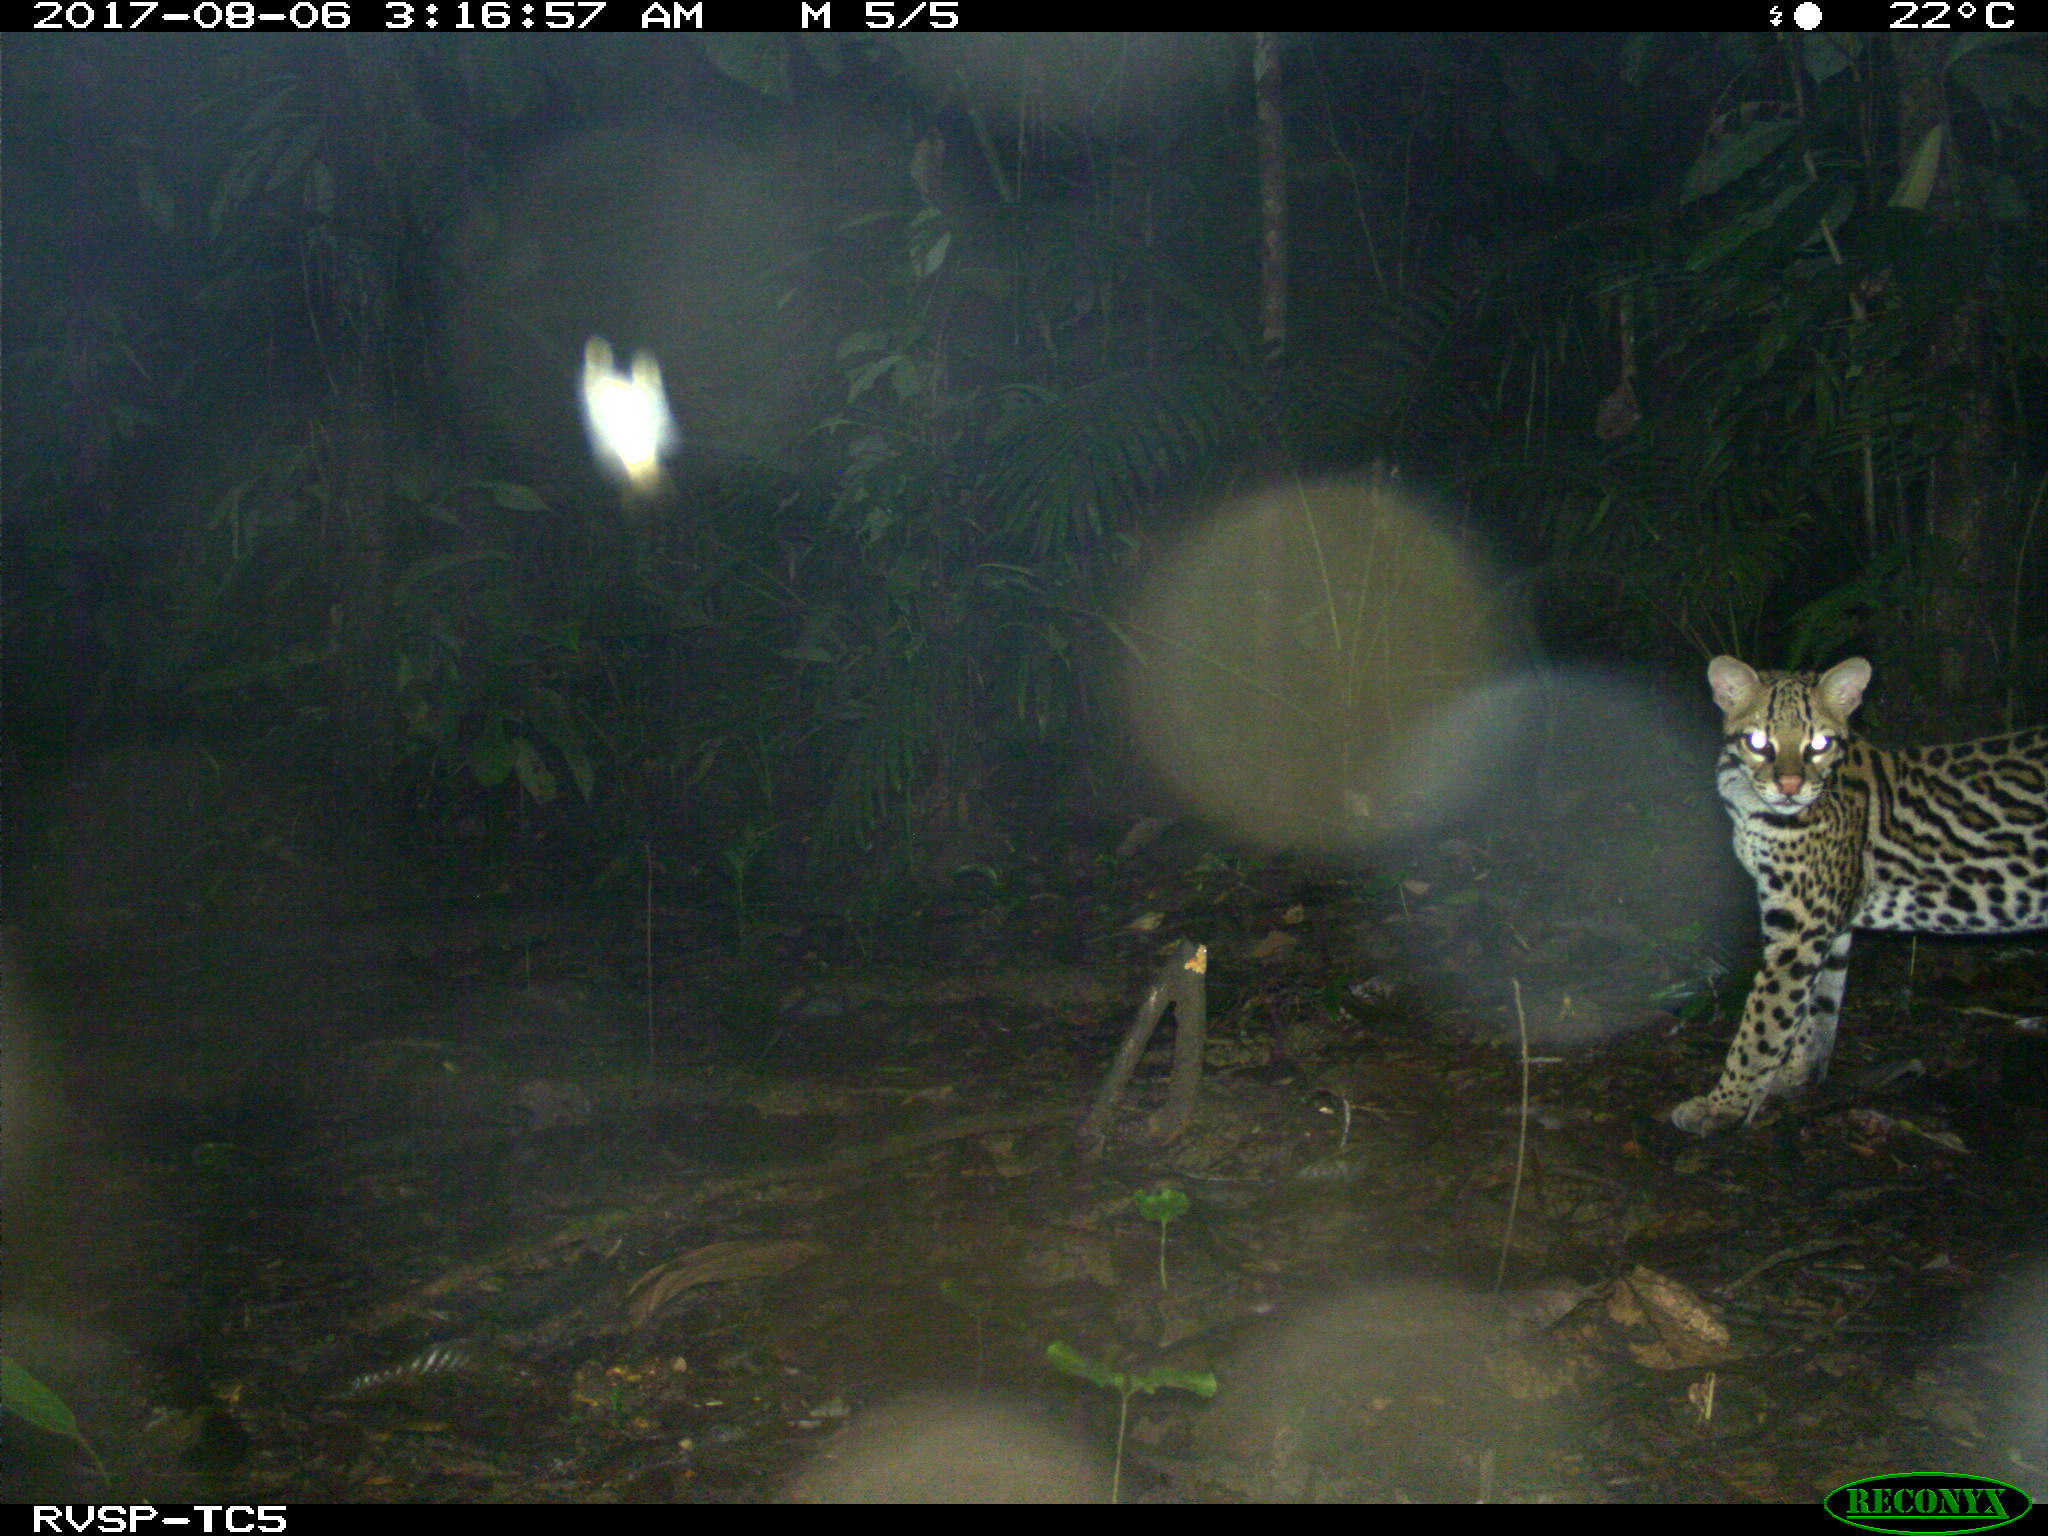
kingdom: Animalia
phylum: Chordata
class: Mammalia
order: Carnivora
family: Felidae
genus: Leopardus
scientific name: Leopardus pardalis
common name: Ocelot
